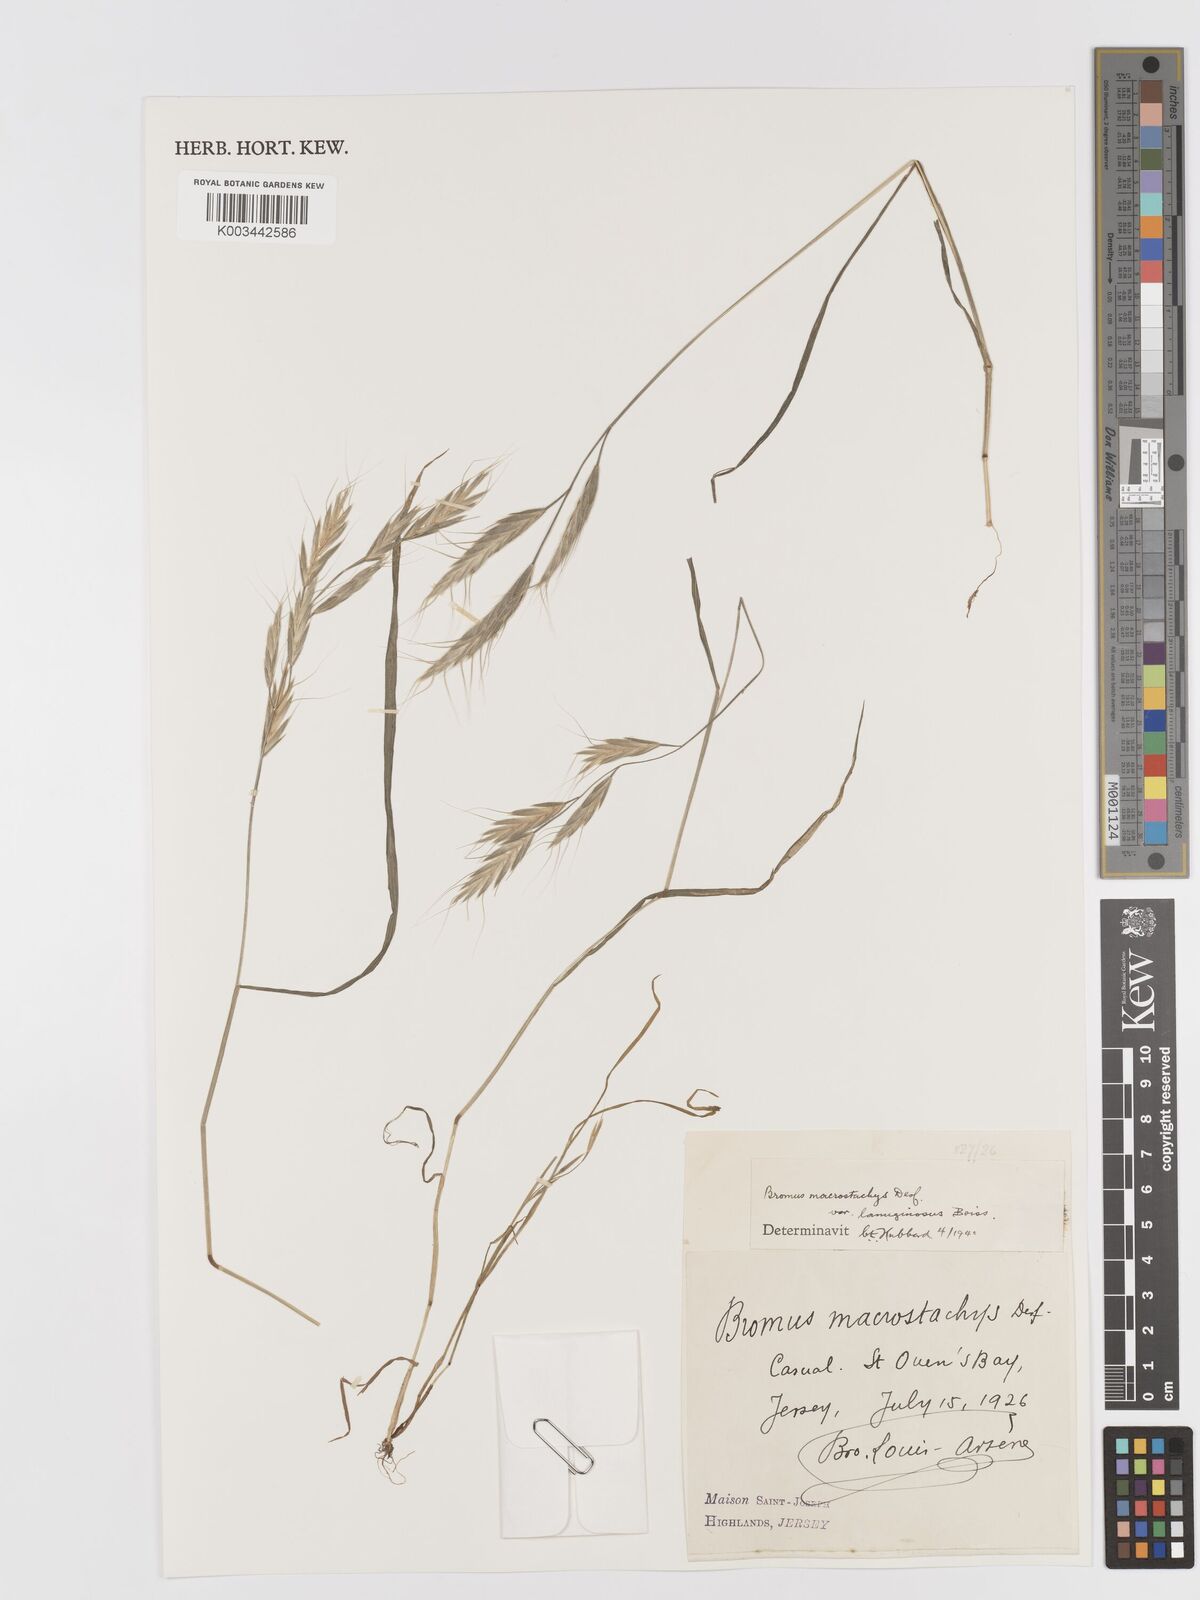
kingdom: Plantae
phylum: Tracheophyta
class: Liliopsida
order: Poales
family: Poaceae
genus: Bromus
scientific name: Bromus lanceolatus
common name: Mediterranean brome
